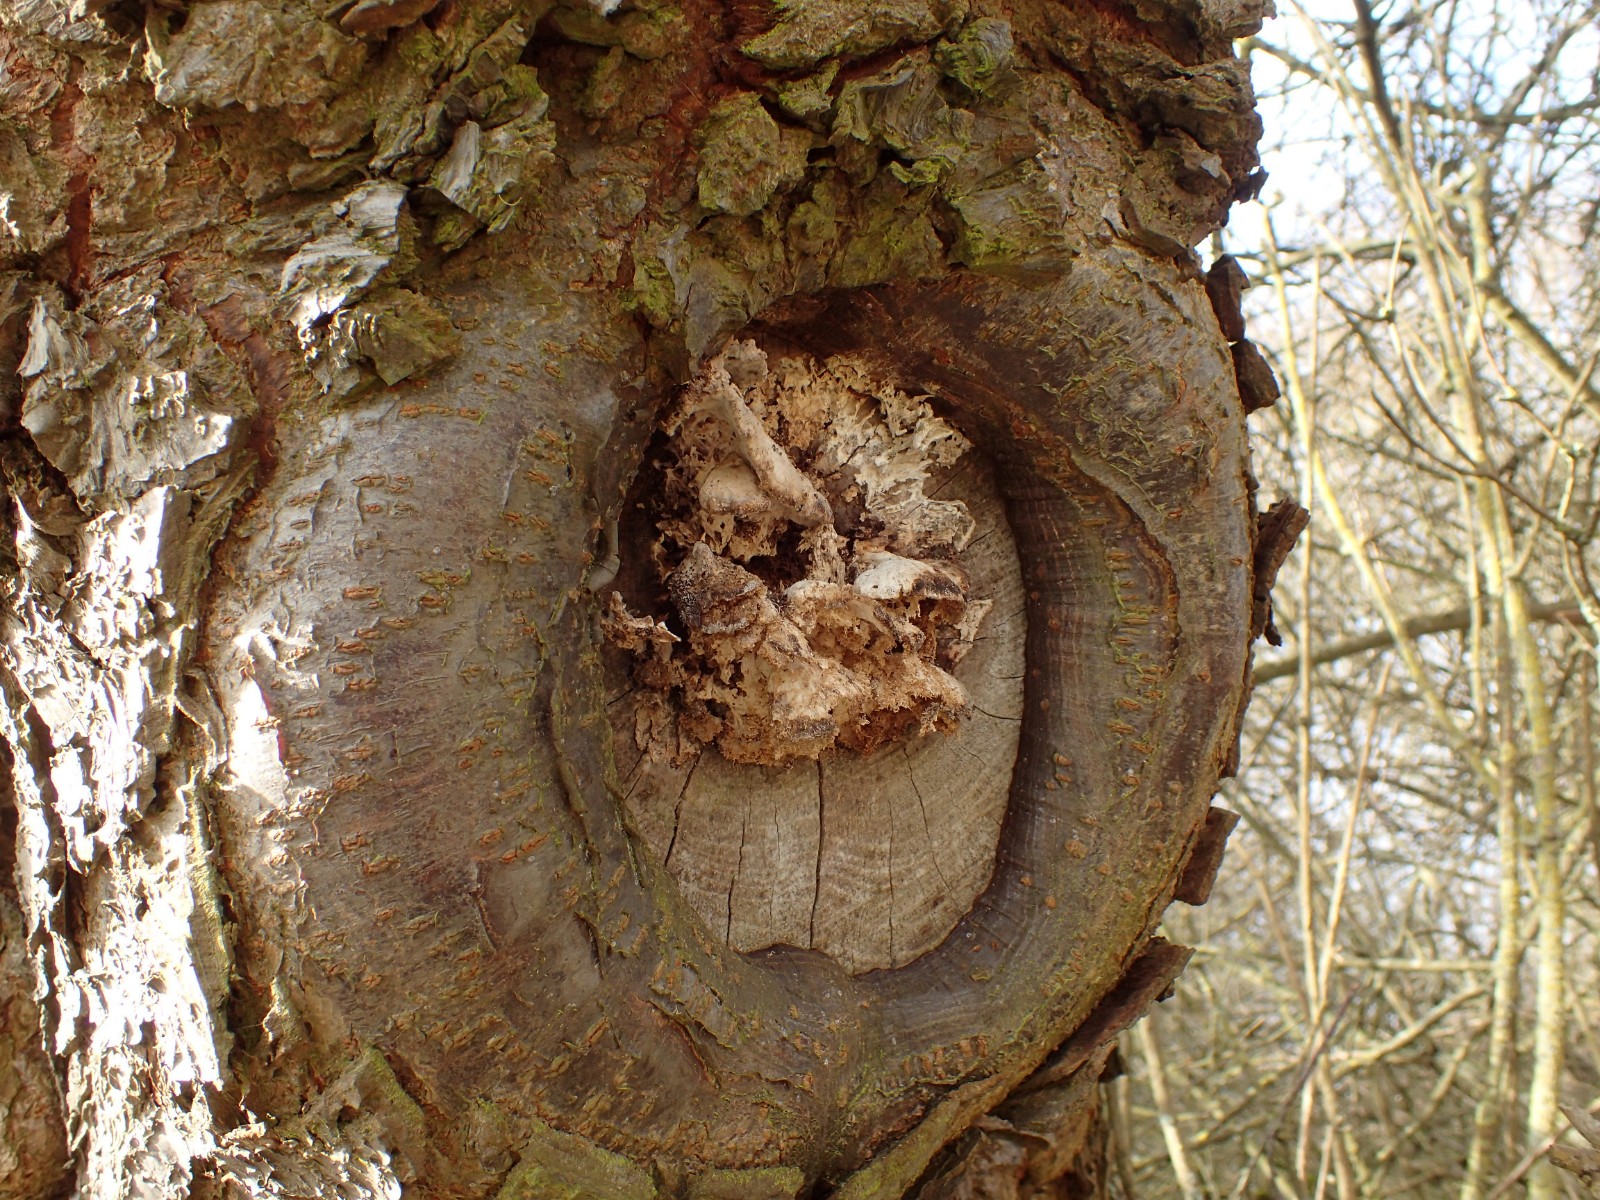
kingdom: Fungi
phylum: Basidiomycota
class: Agaricomycetes
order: Hymenochaetales
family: Oxyporaceae
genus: Oxyporus
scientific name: Oxyporus populinus
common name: sammenvokset trylleporesvamp
